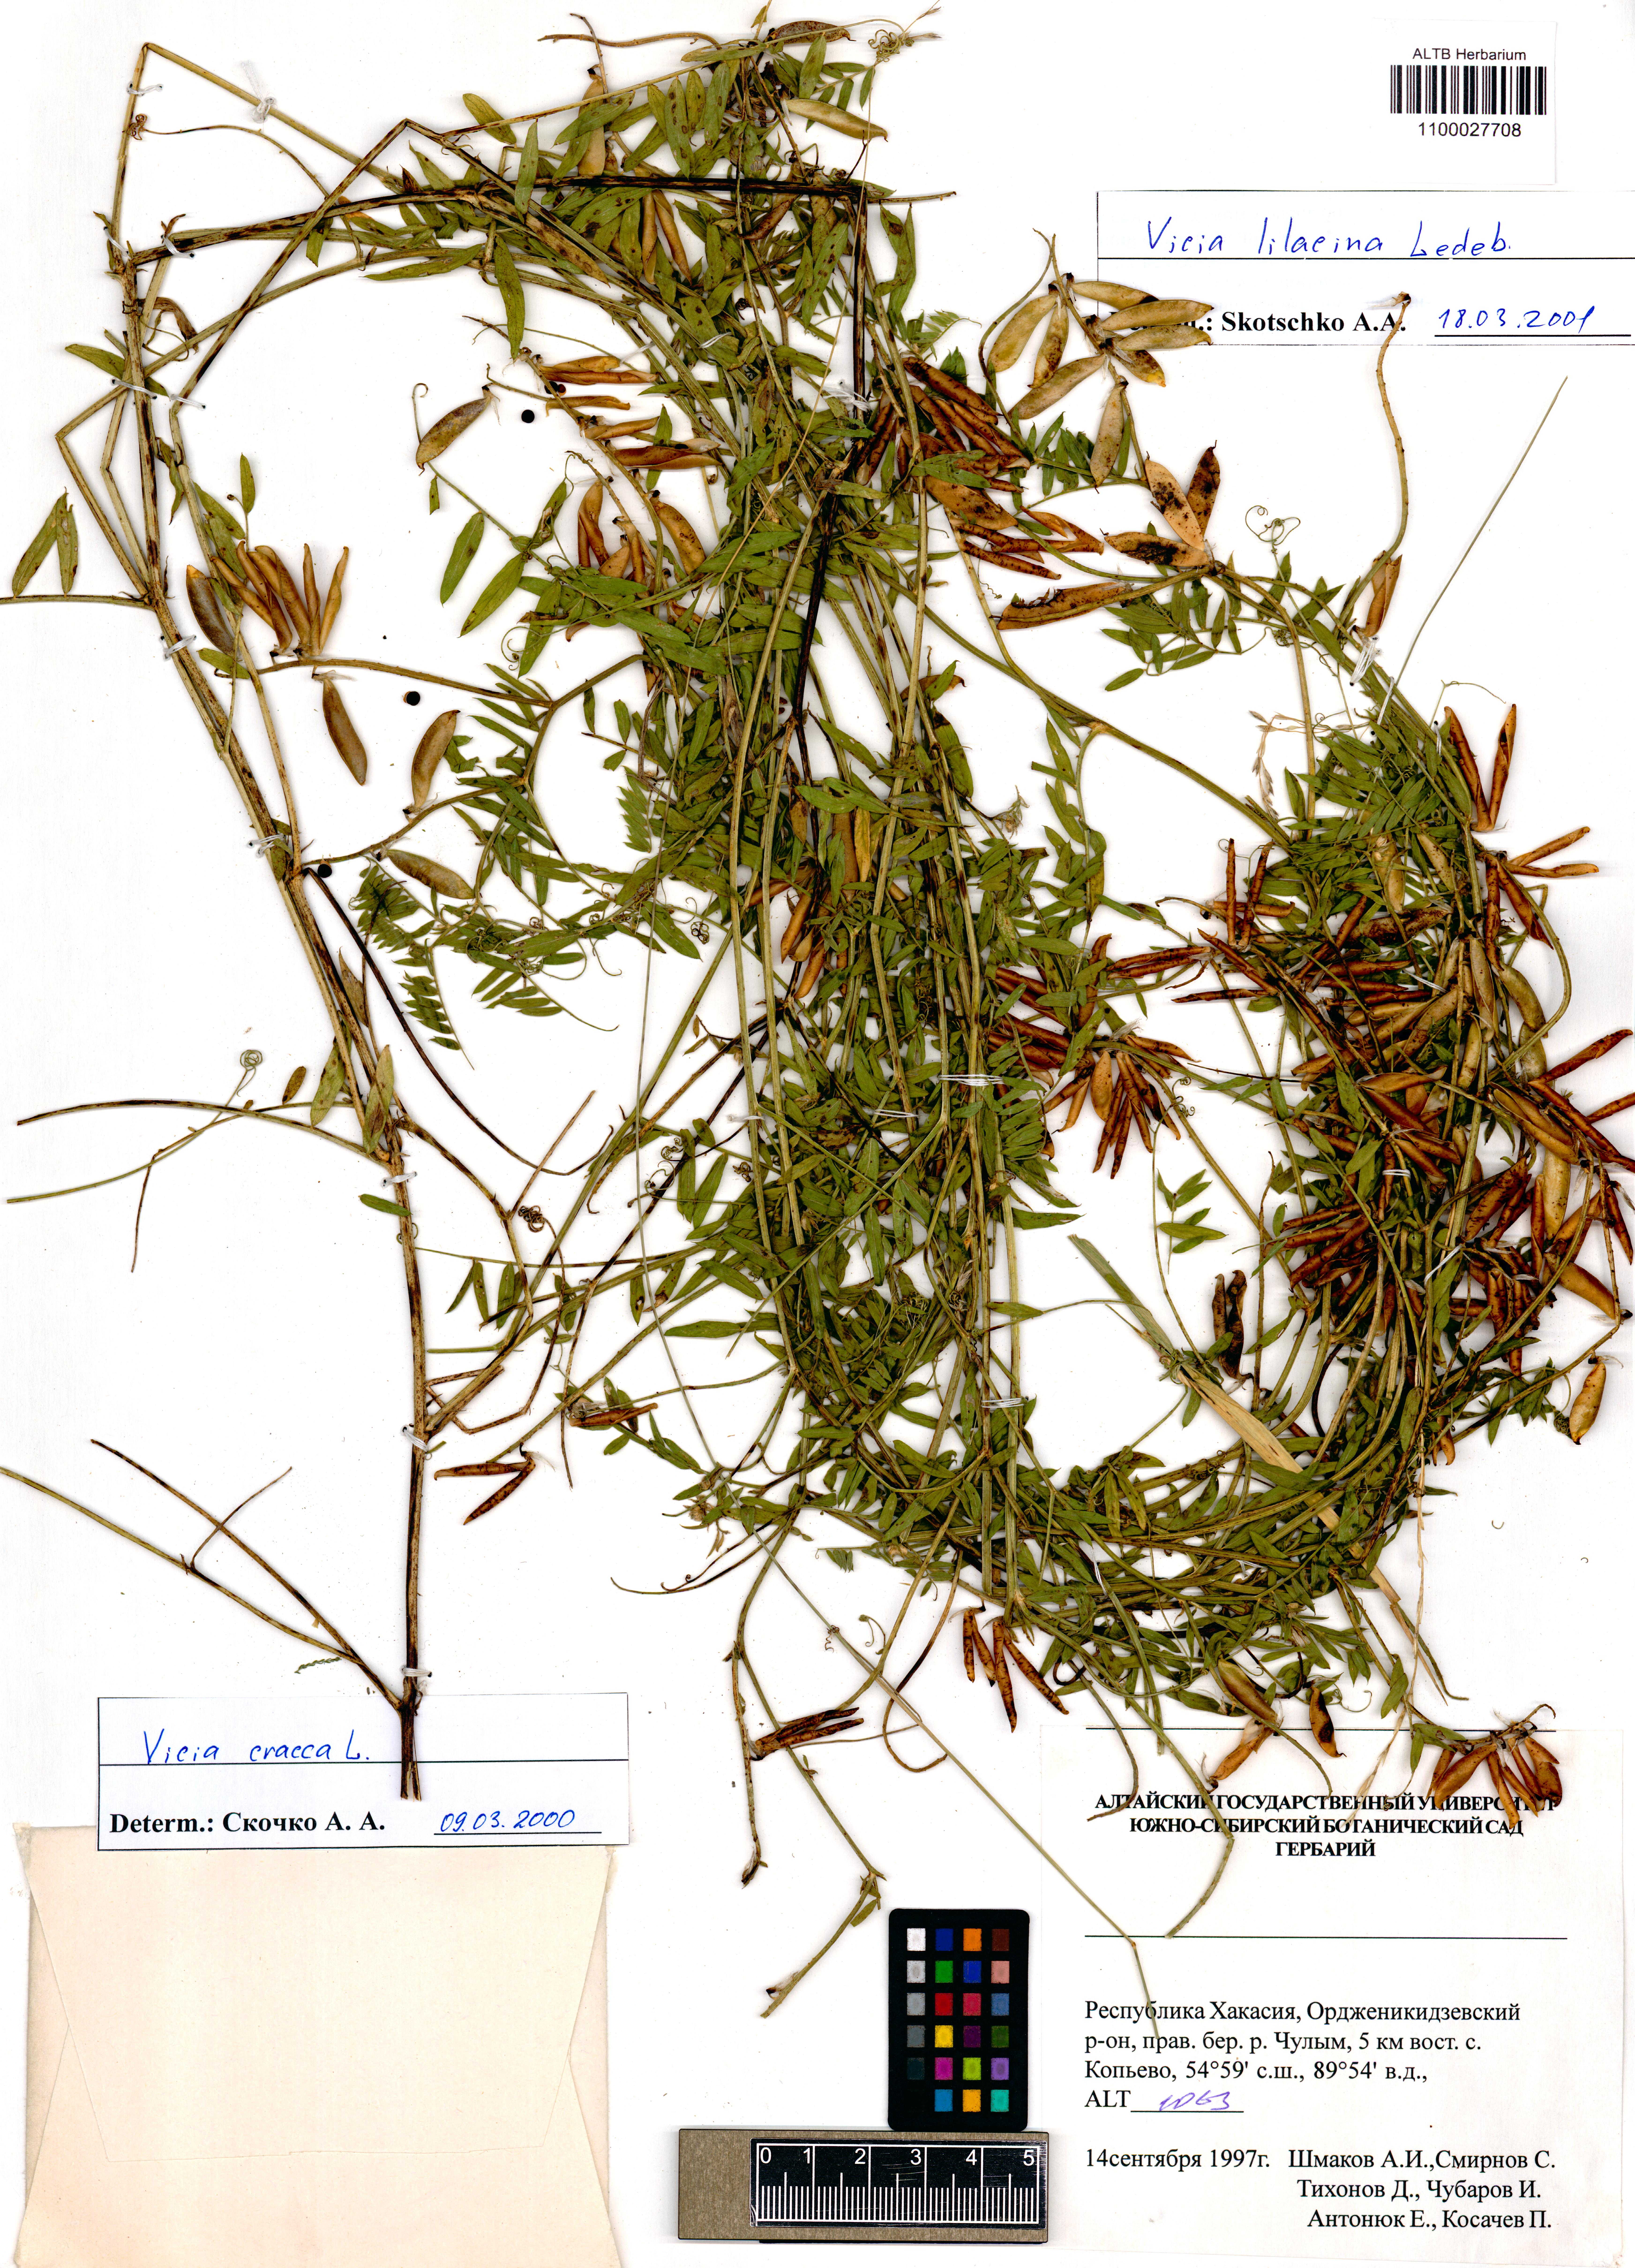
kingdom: Plantae
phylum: Tracheophyta
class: Magnoliopsida
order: Fabales
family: Fabaceae
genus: Vicia
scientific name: Vicia lilacina
